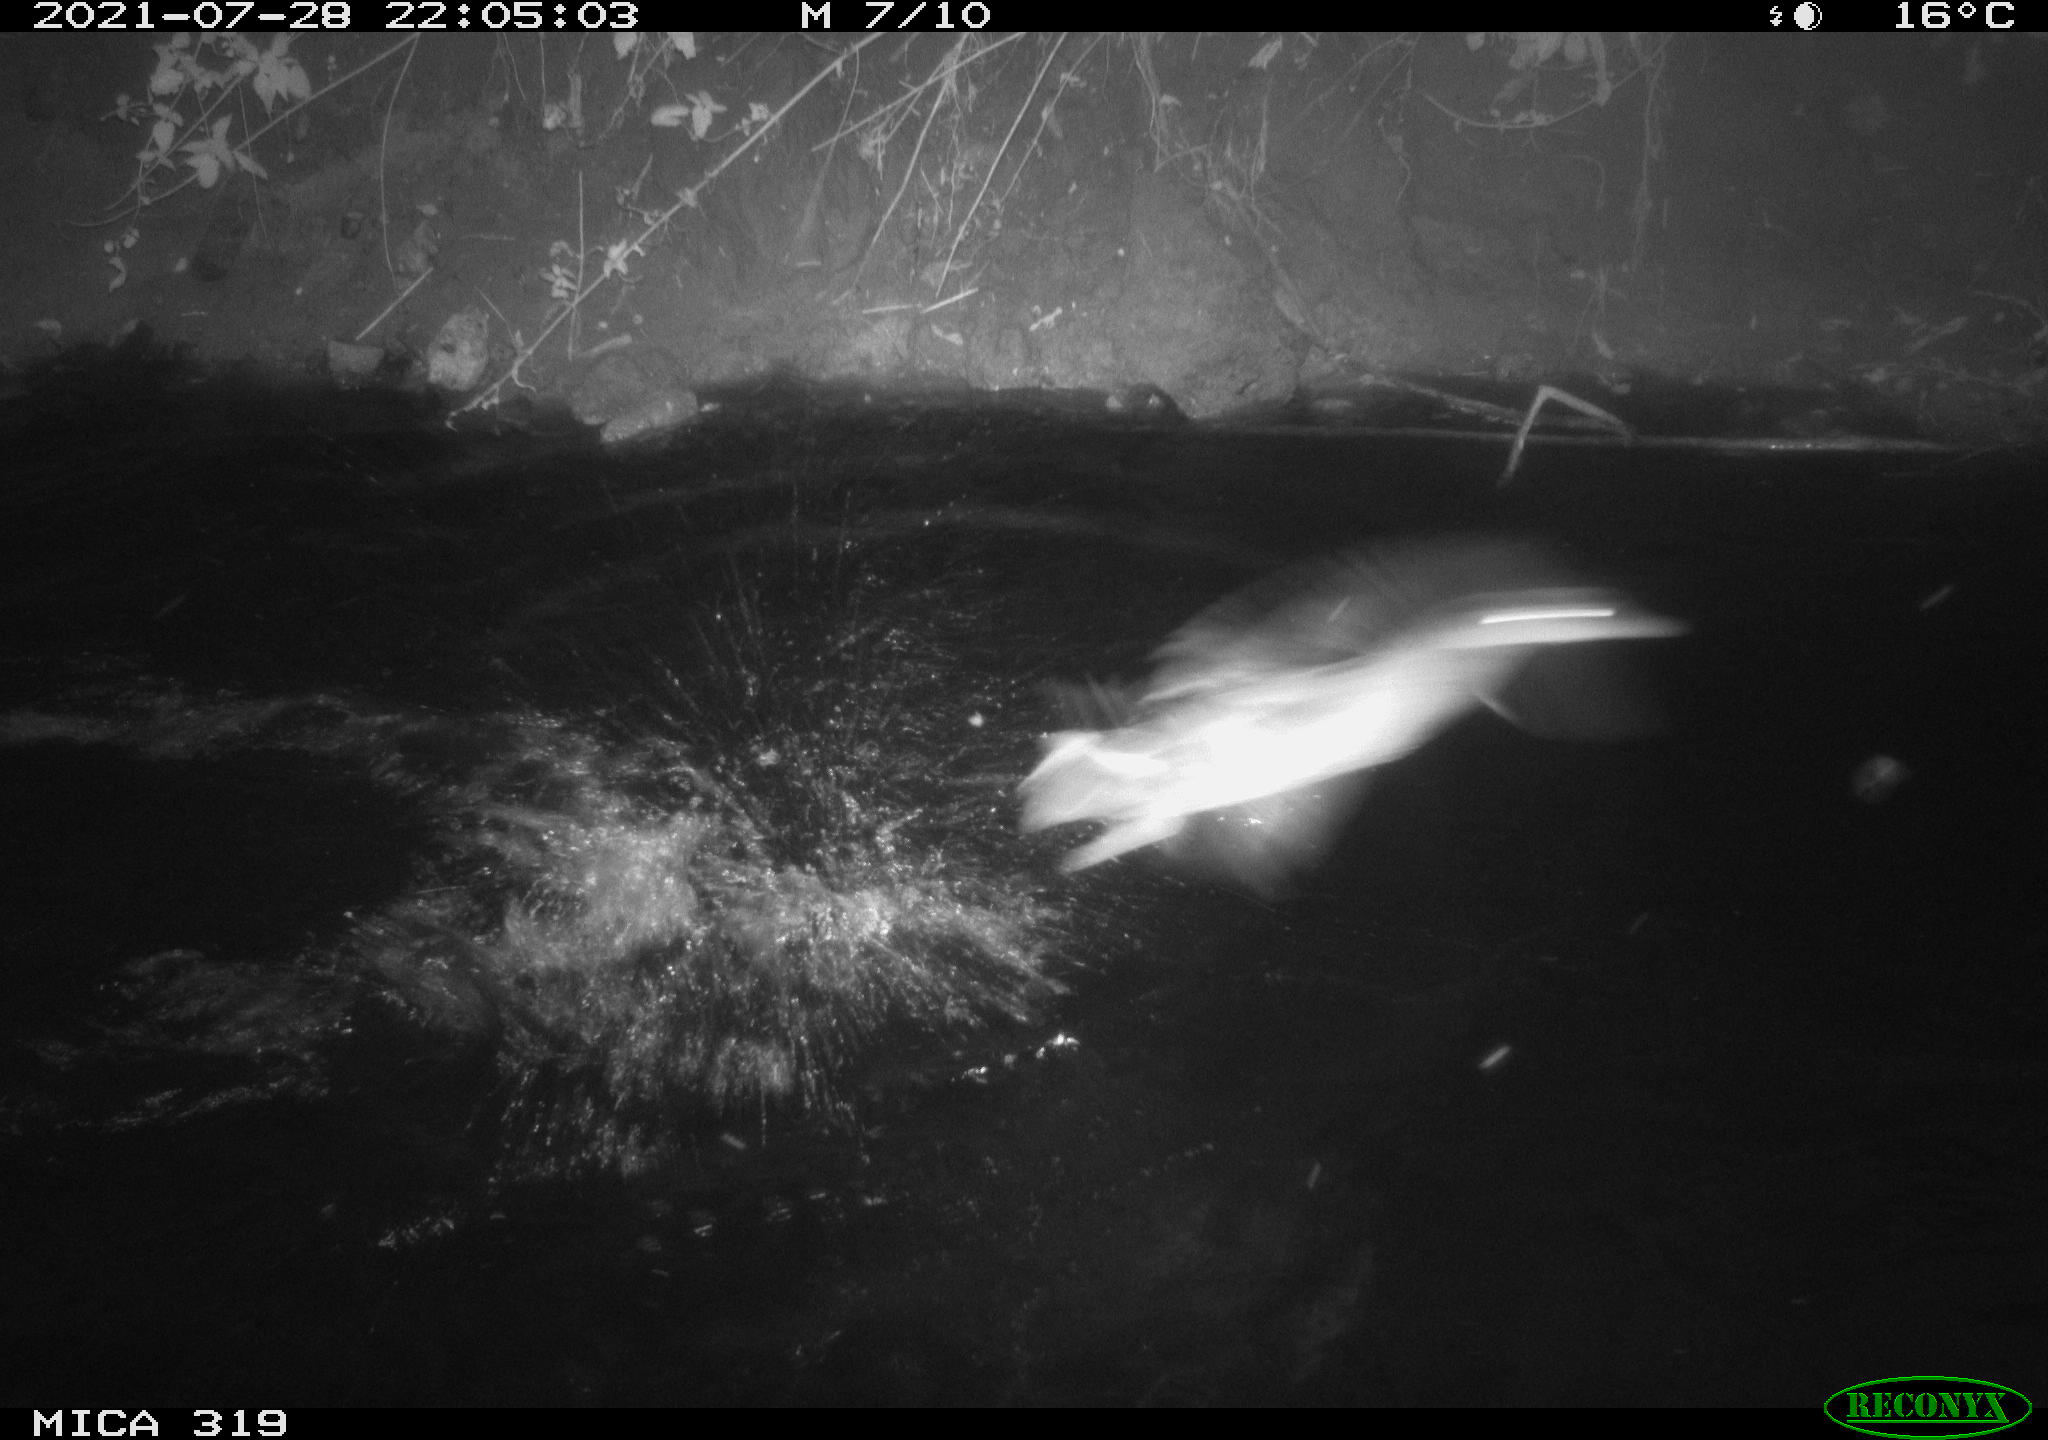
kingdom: Animalia
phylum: Chordata
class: Aves
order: Anseriformes
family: Anatidae
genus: Anas
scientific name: Anas platyrhynchos
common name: Mallard
